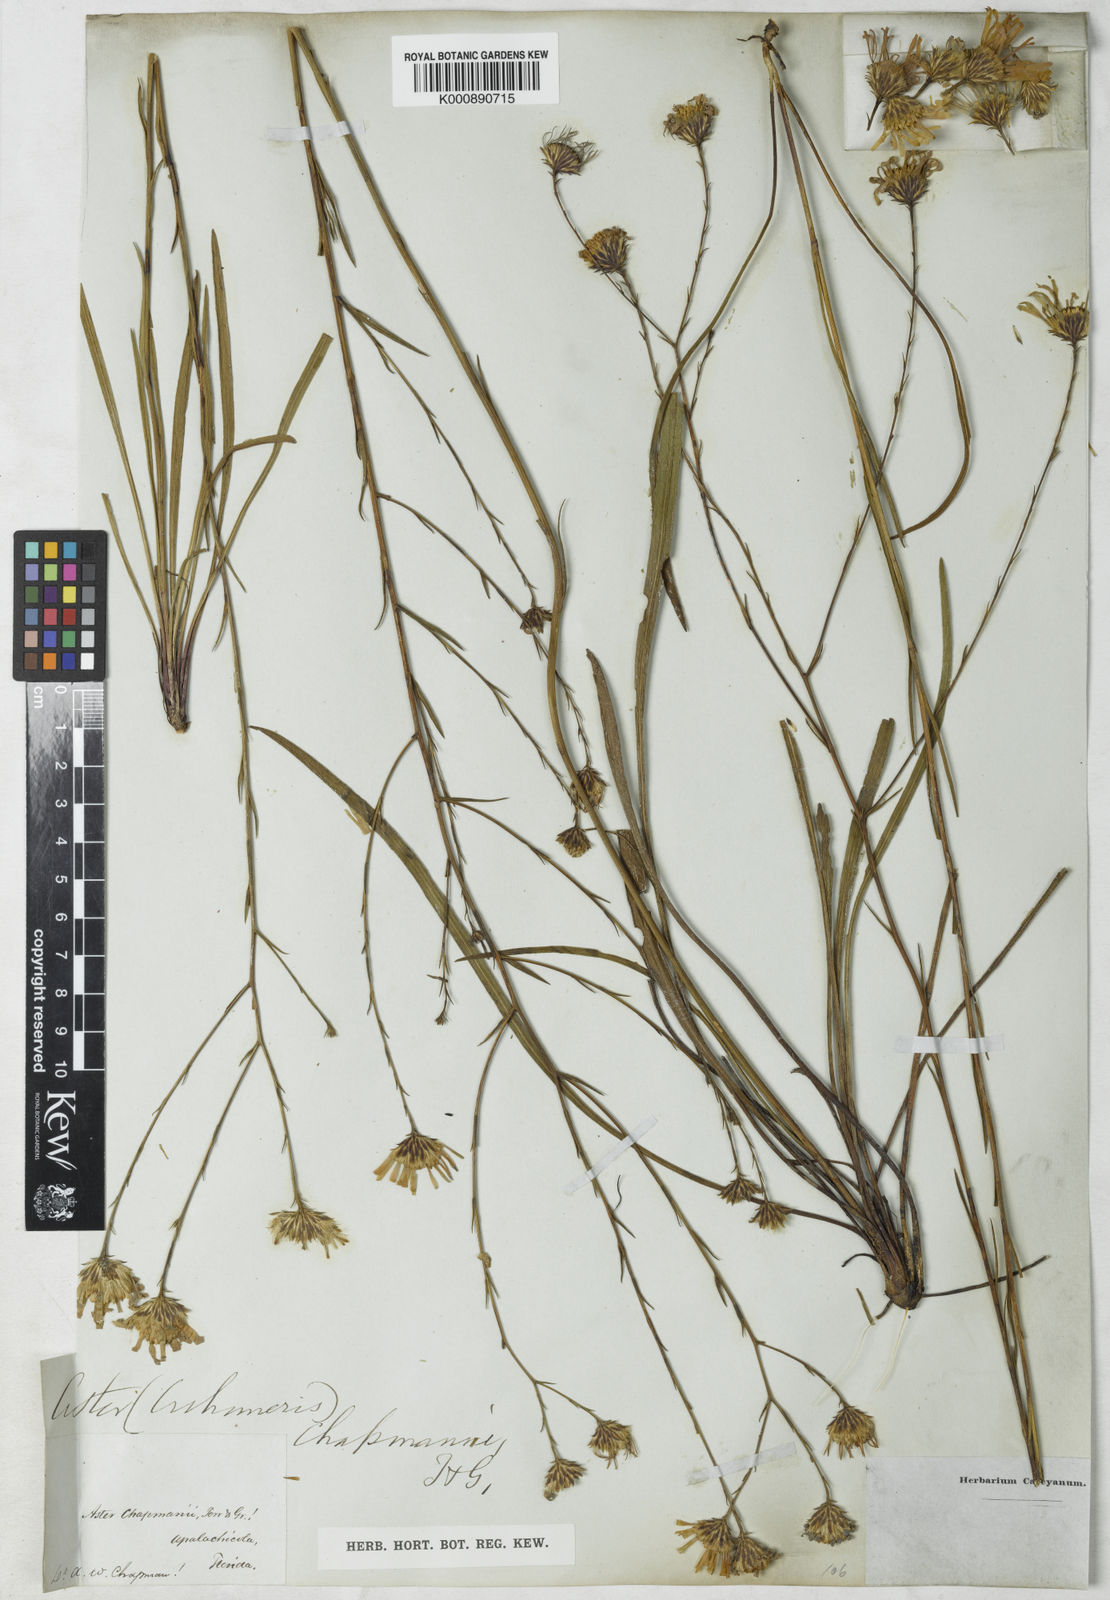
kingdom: Plantae
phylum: Tracheophyta
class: Magnoliopsida
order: Asterales
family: Asteraceae
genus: Symphyotrichum
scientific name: Symphyotrichum chapmanii
